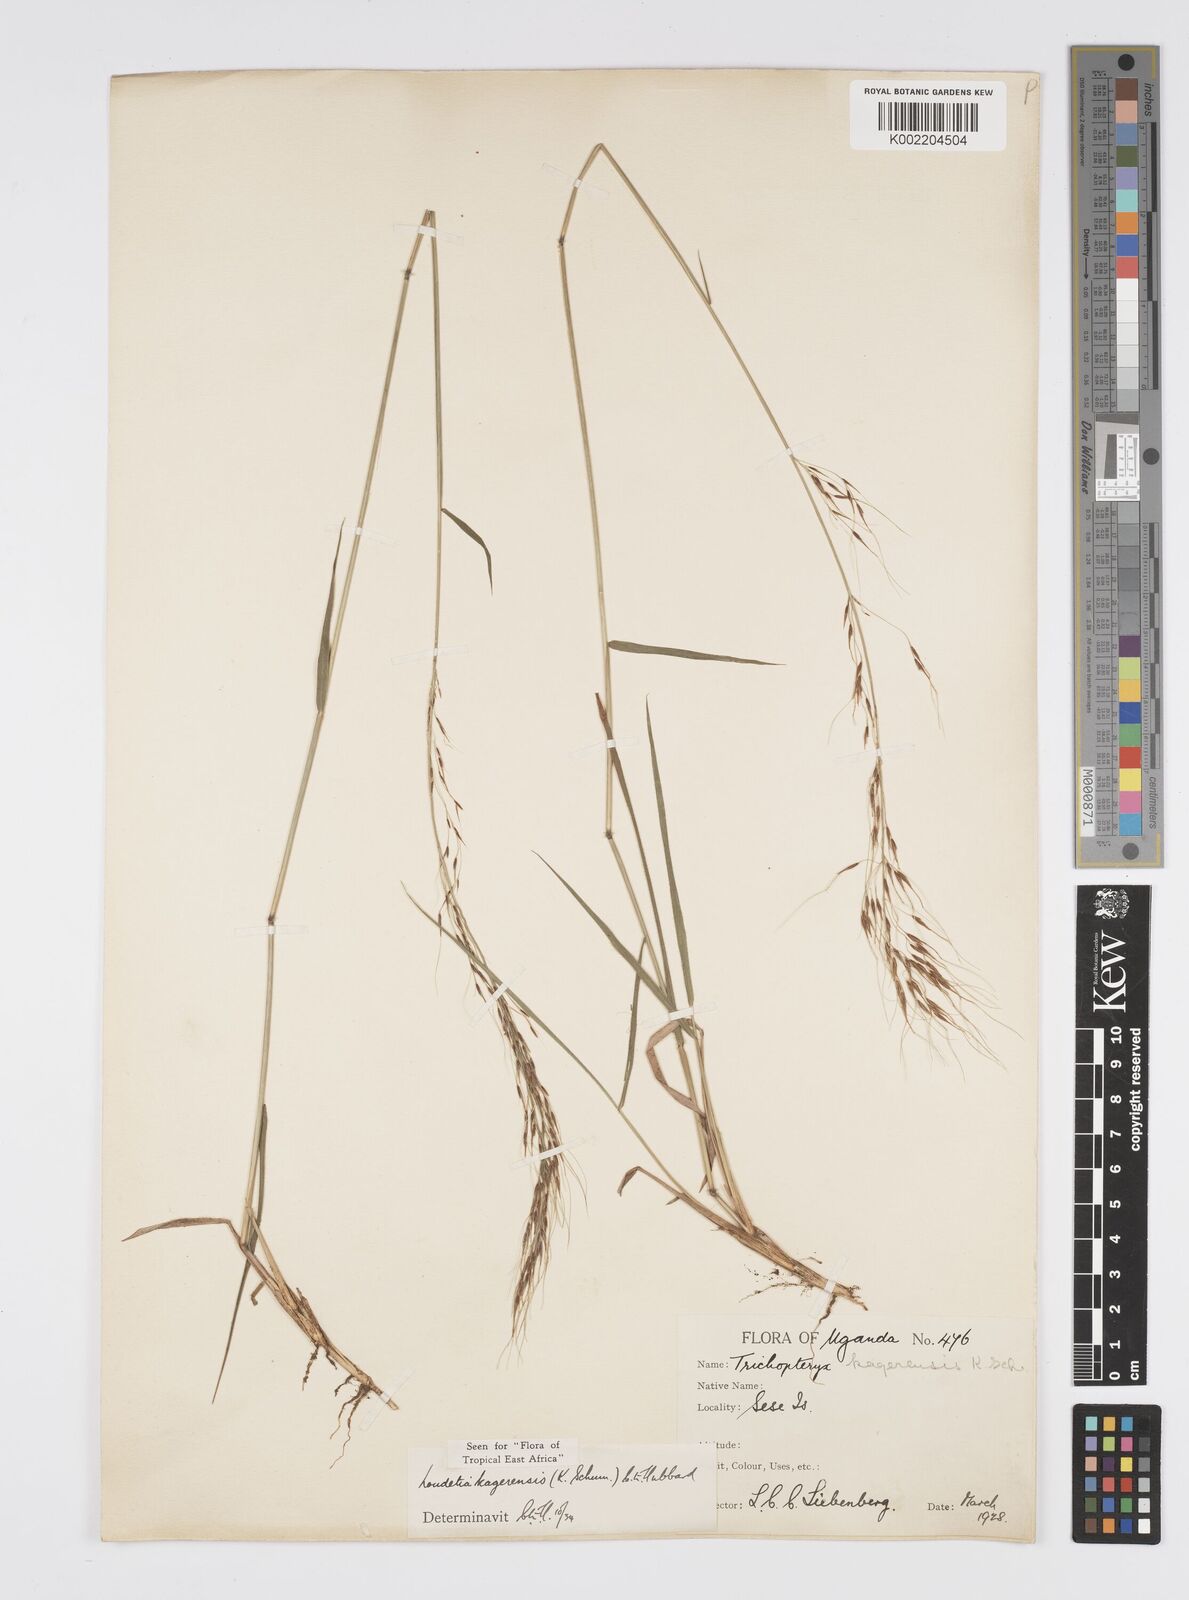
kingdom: Plantae
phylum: Tracheophyta
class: Liliopsida
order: Poales
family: Poaceae
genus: Loudetia
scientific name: Loudetia kagerensis
